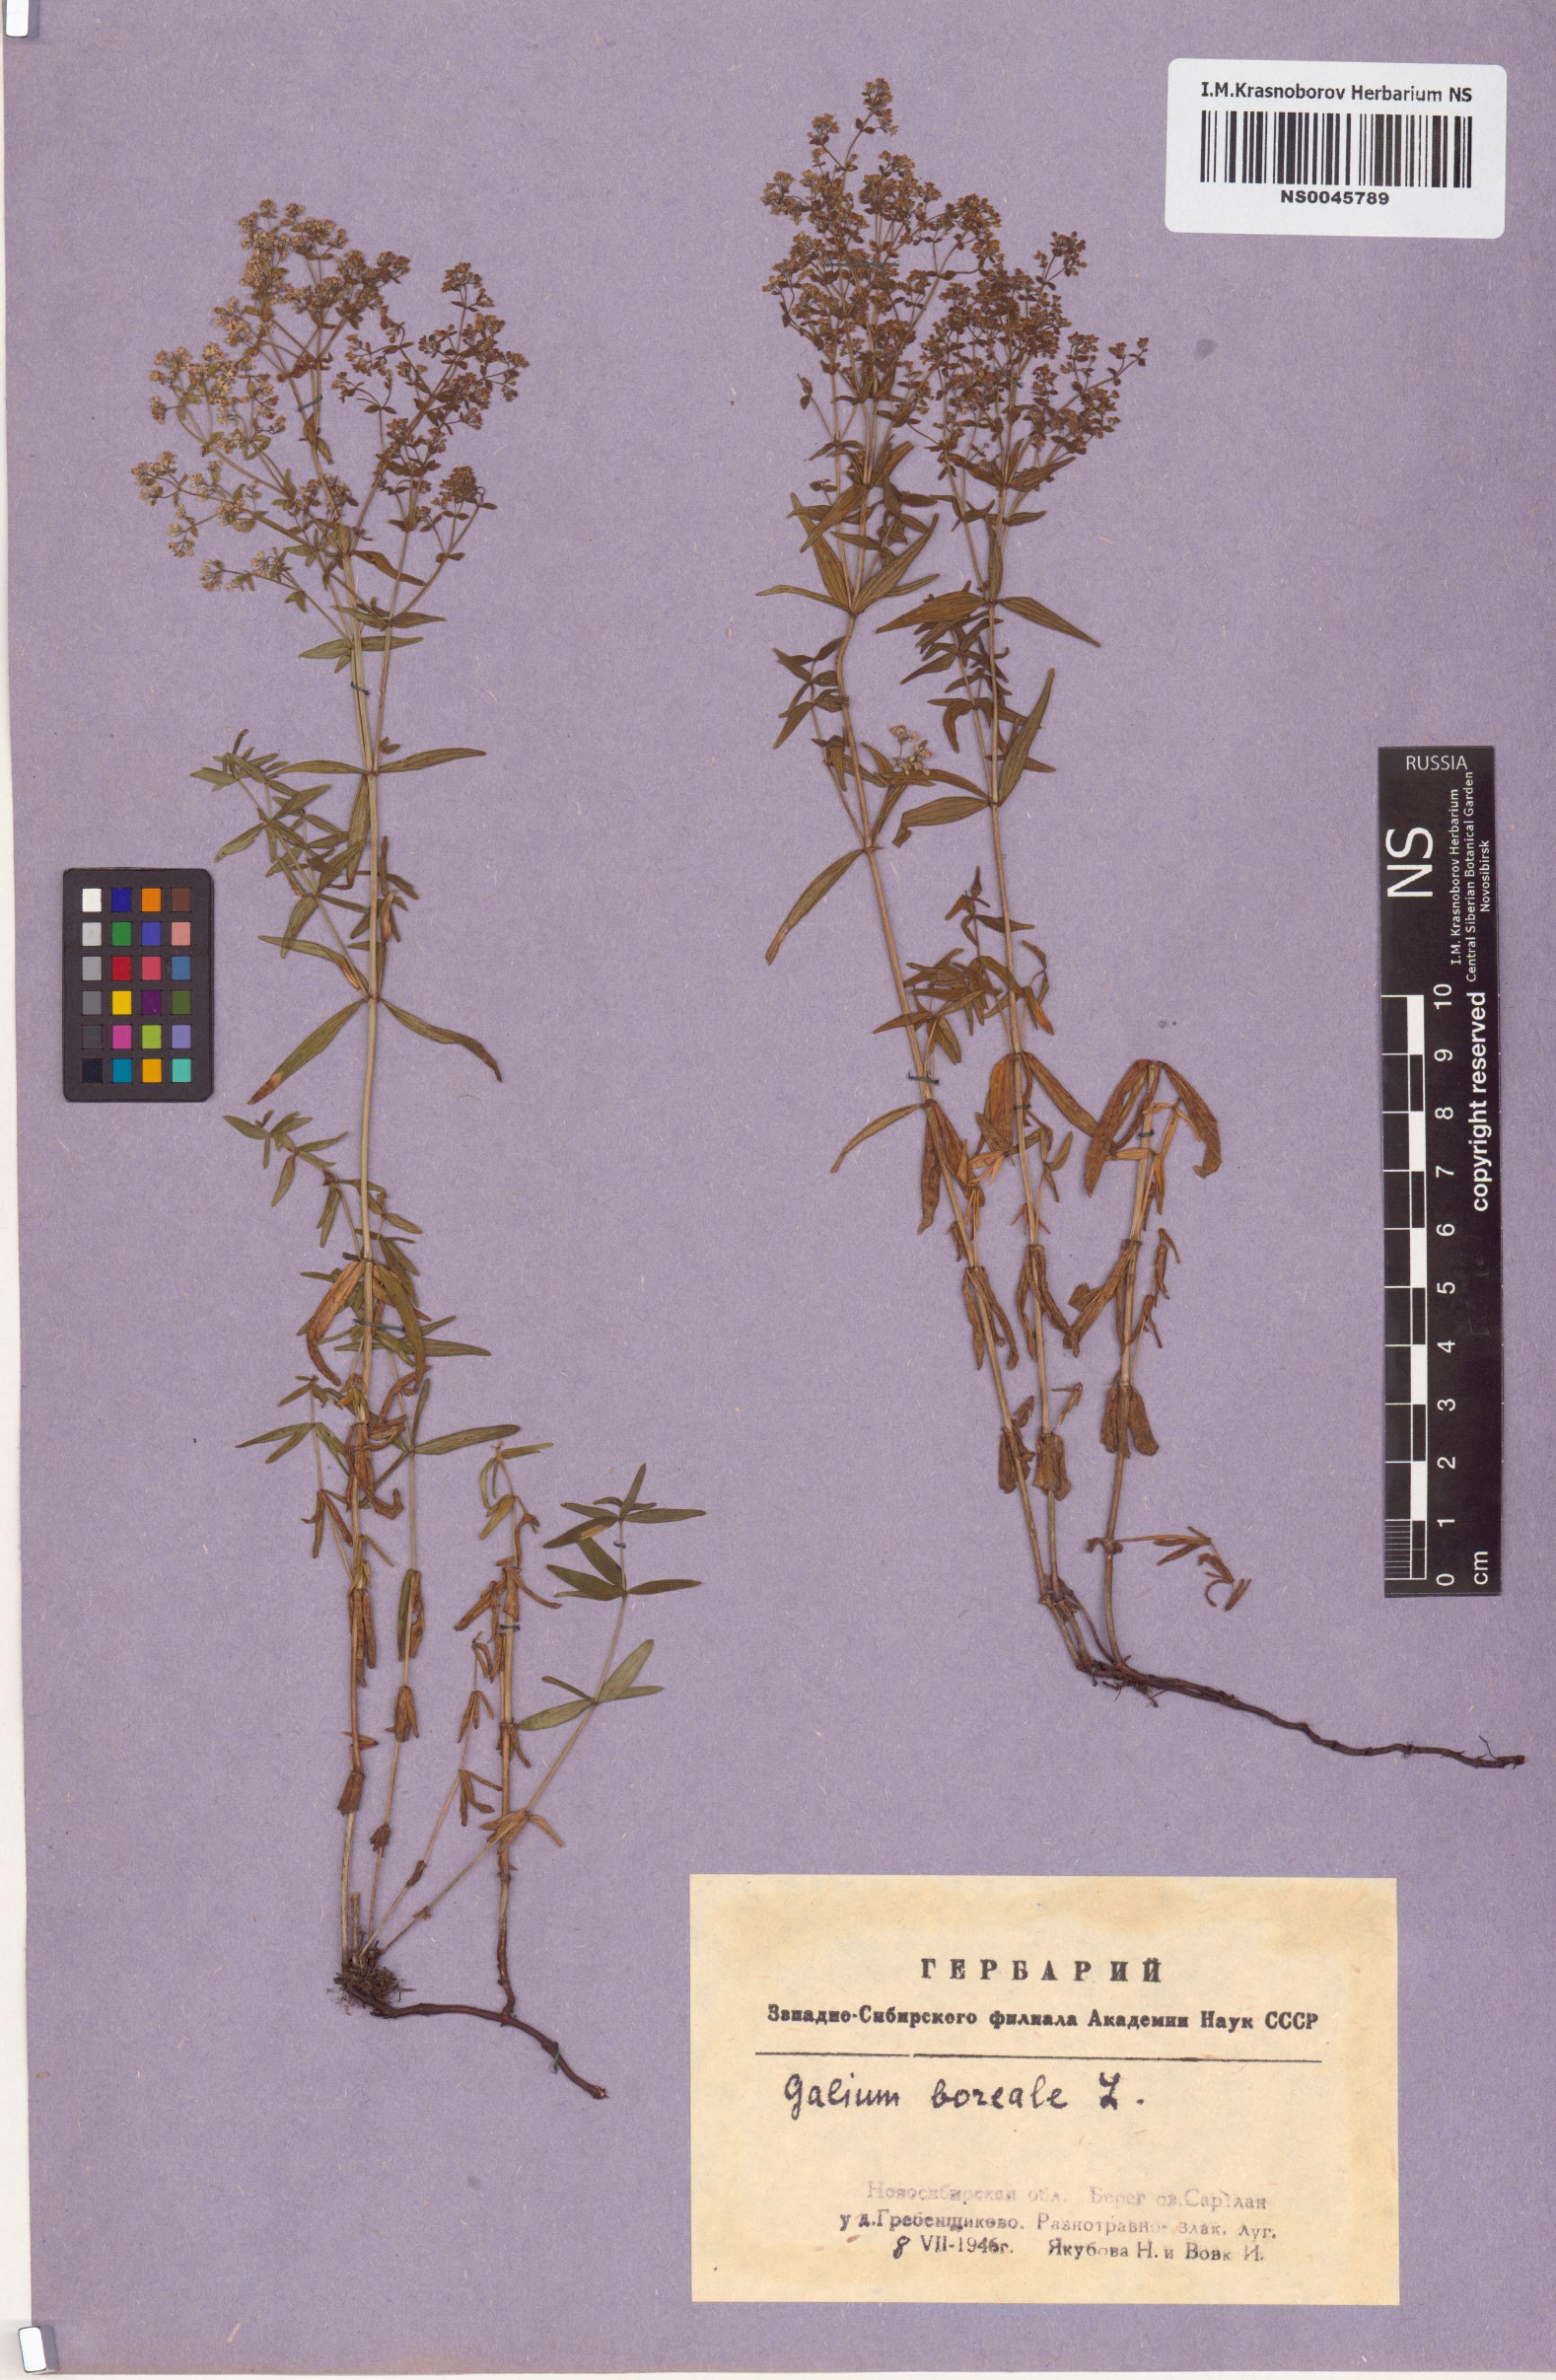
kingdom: Plantae
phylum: Tracheophyta
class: Magnoliopsida
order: Gentianales
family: Rubiaceae
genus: Galium
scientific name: Galium boreale
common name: Northern bedstraw
